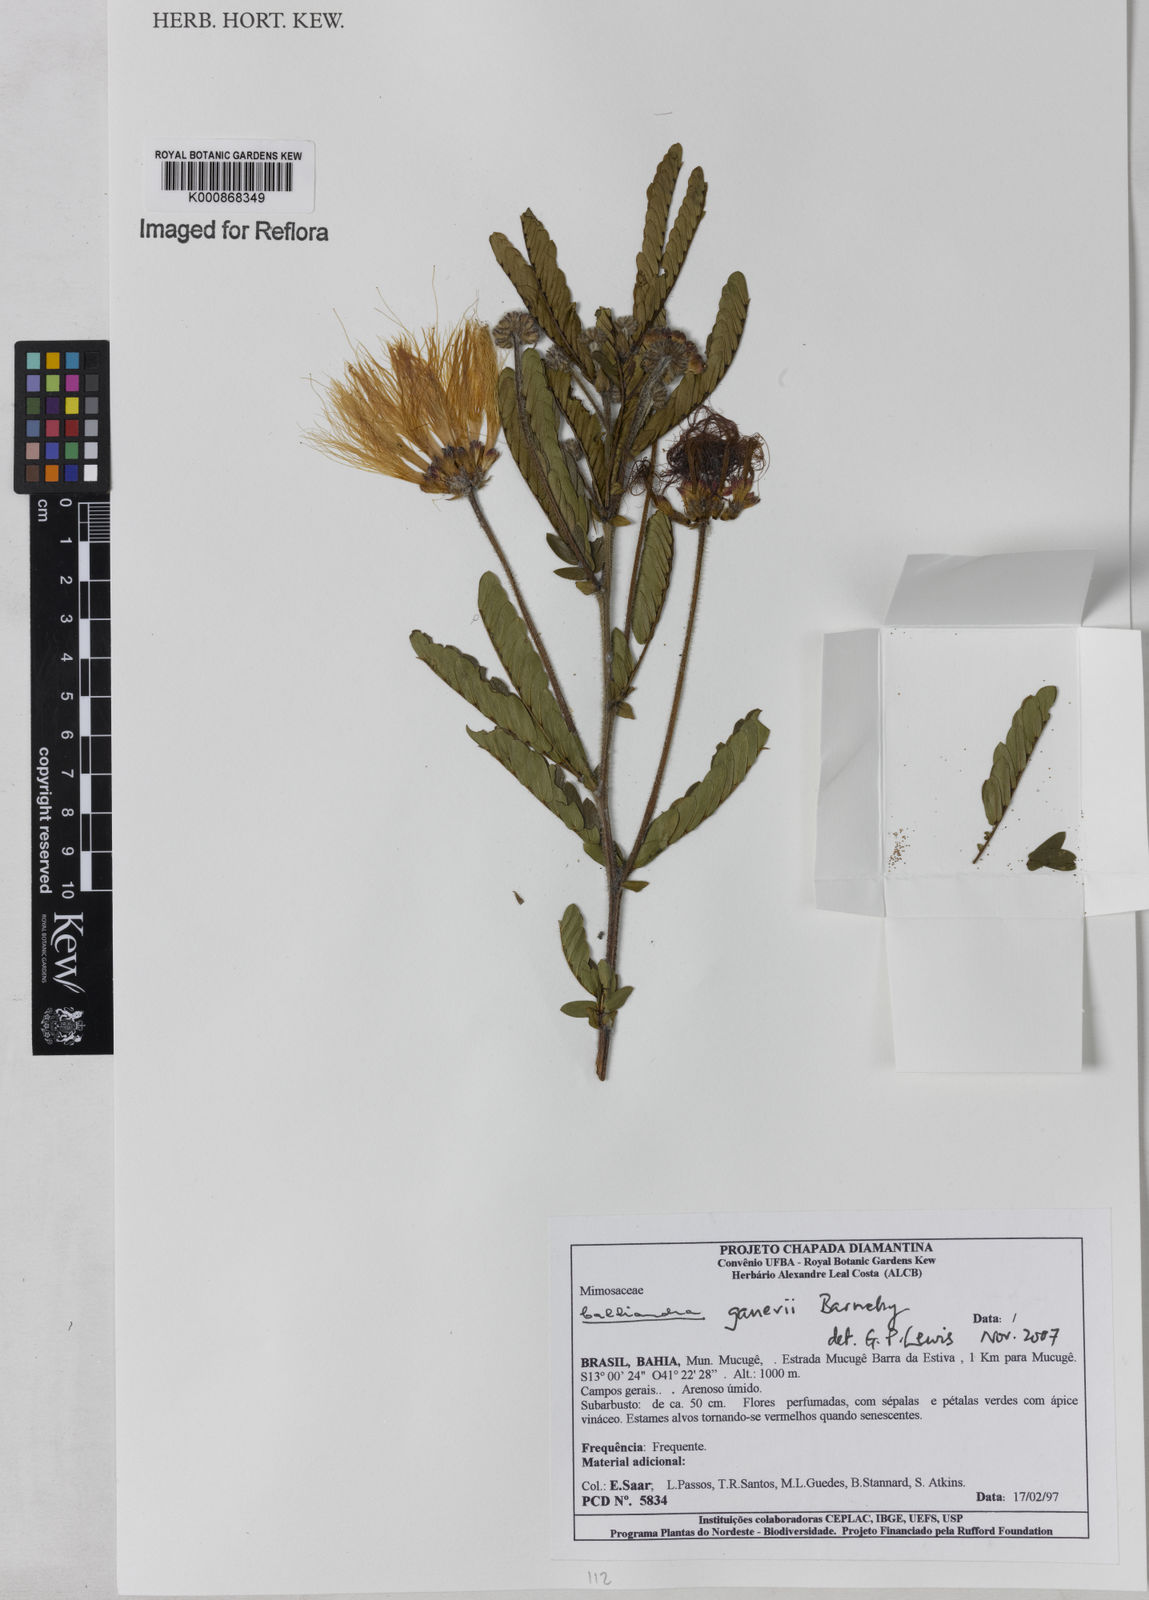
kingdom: Plantae
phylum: Tracheophyta
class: Magnoliopsida
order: Fabales
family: Fabaceae
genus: Calliandra
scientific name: Calliandra ganevii
